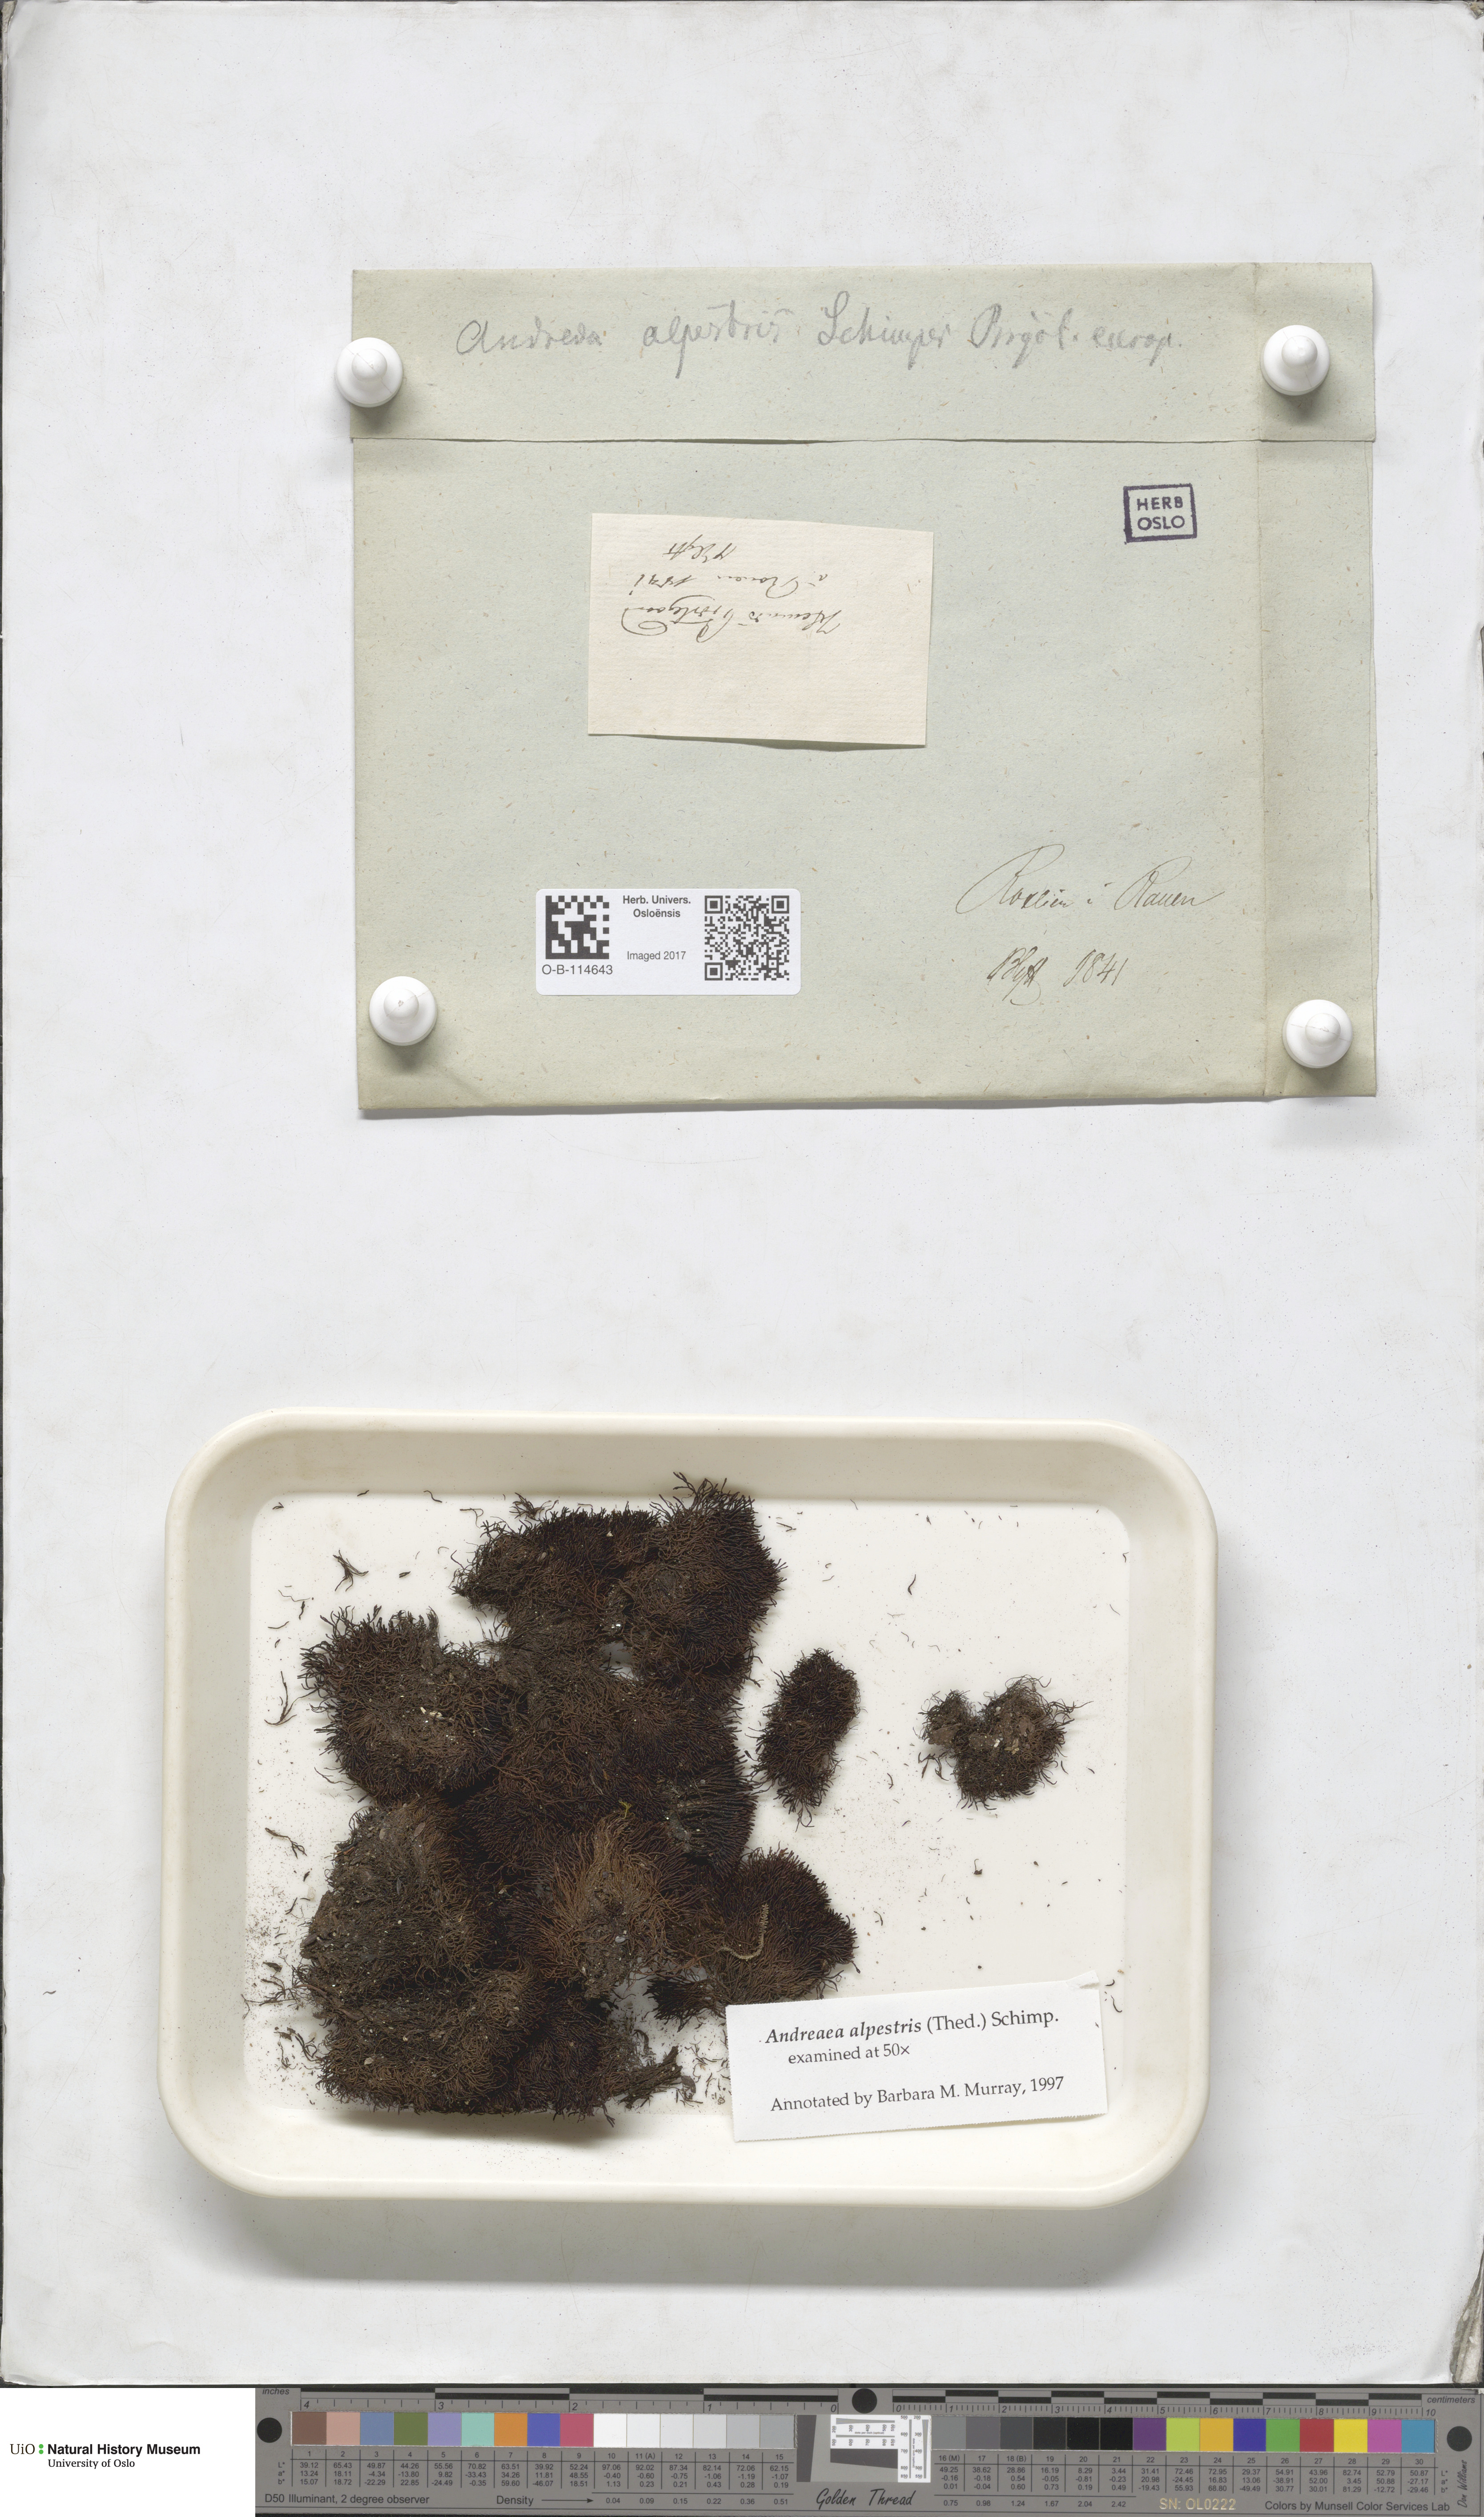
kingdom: Plantae
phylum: Bryophyta
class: Andreaeopsida
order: Andreaeales
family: Andreaeaceae
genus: Andreaea
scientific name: Andreaea alpestris
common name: Slender rock-moss
